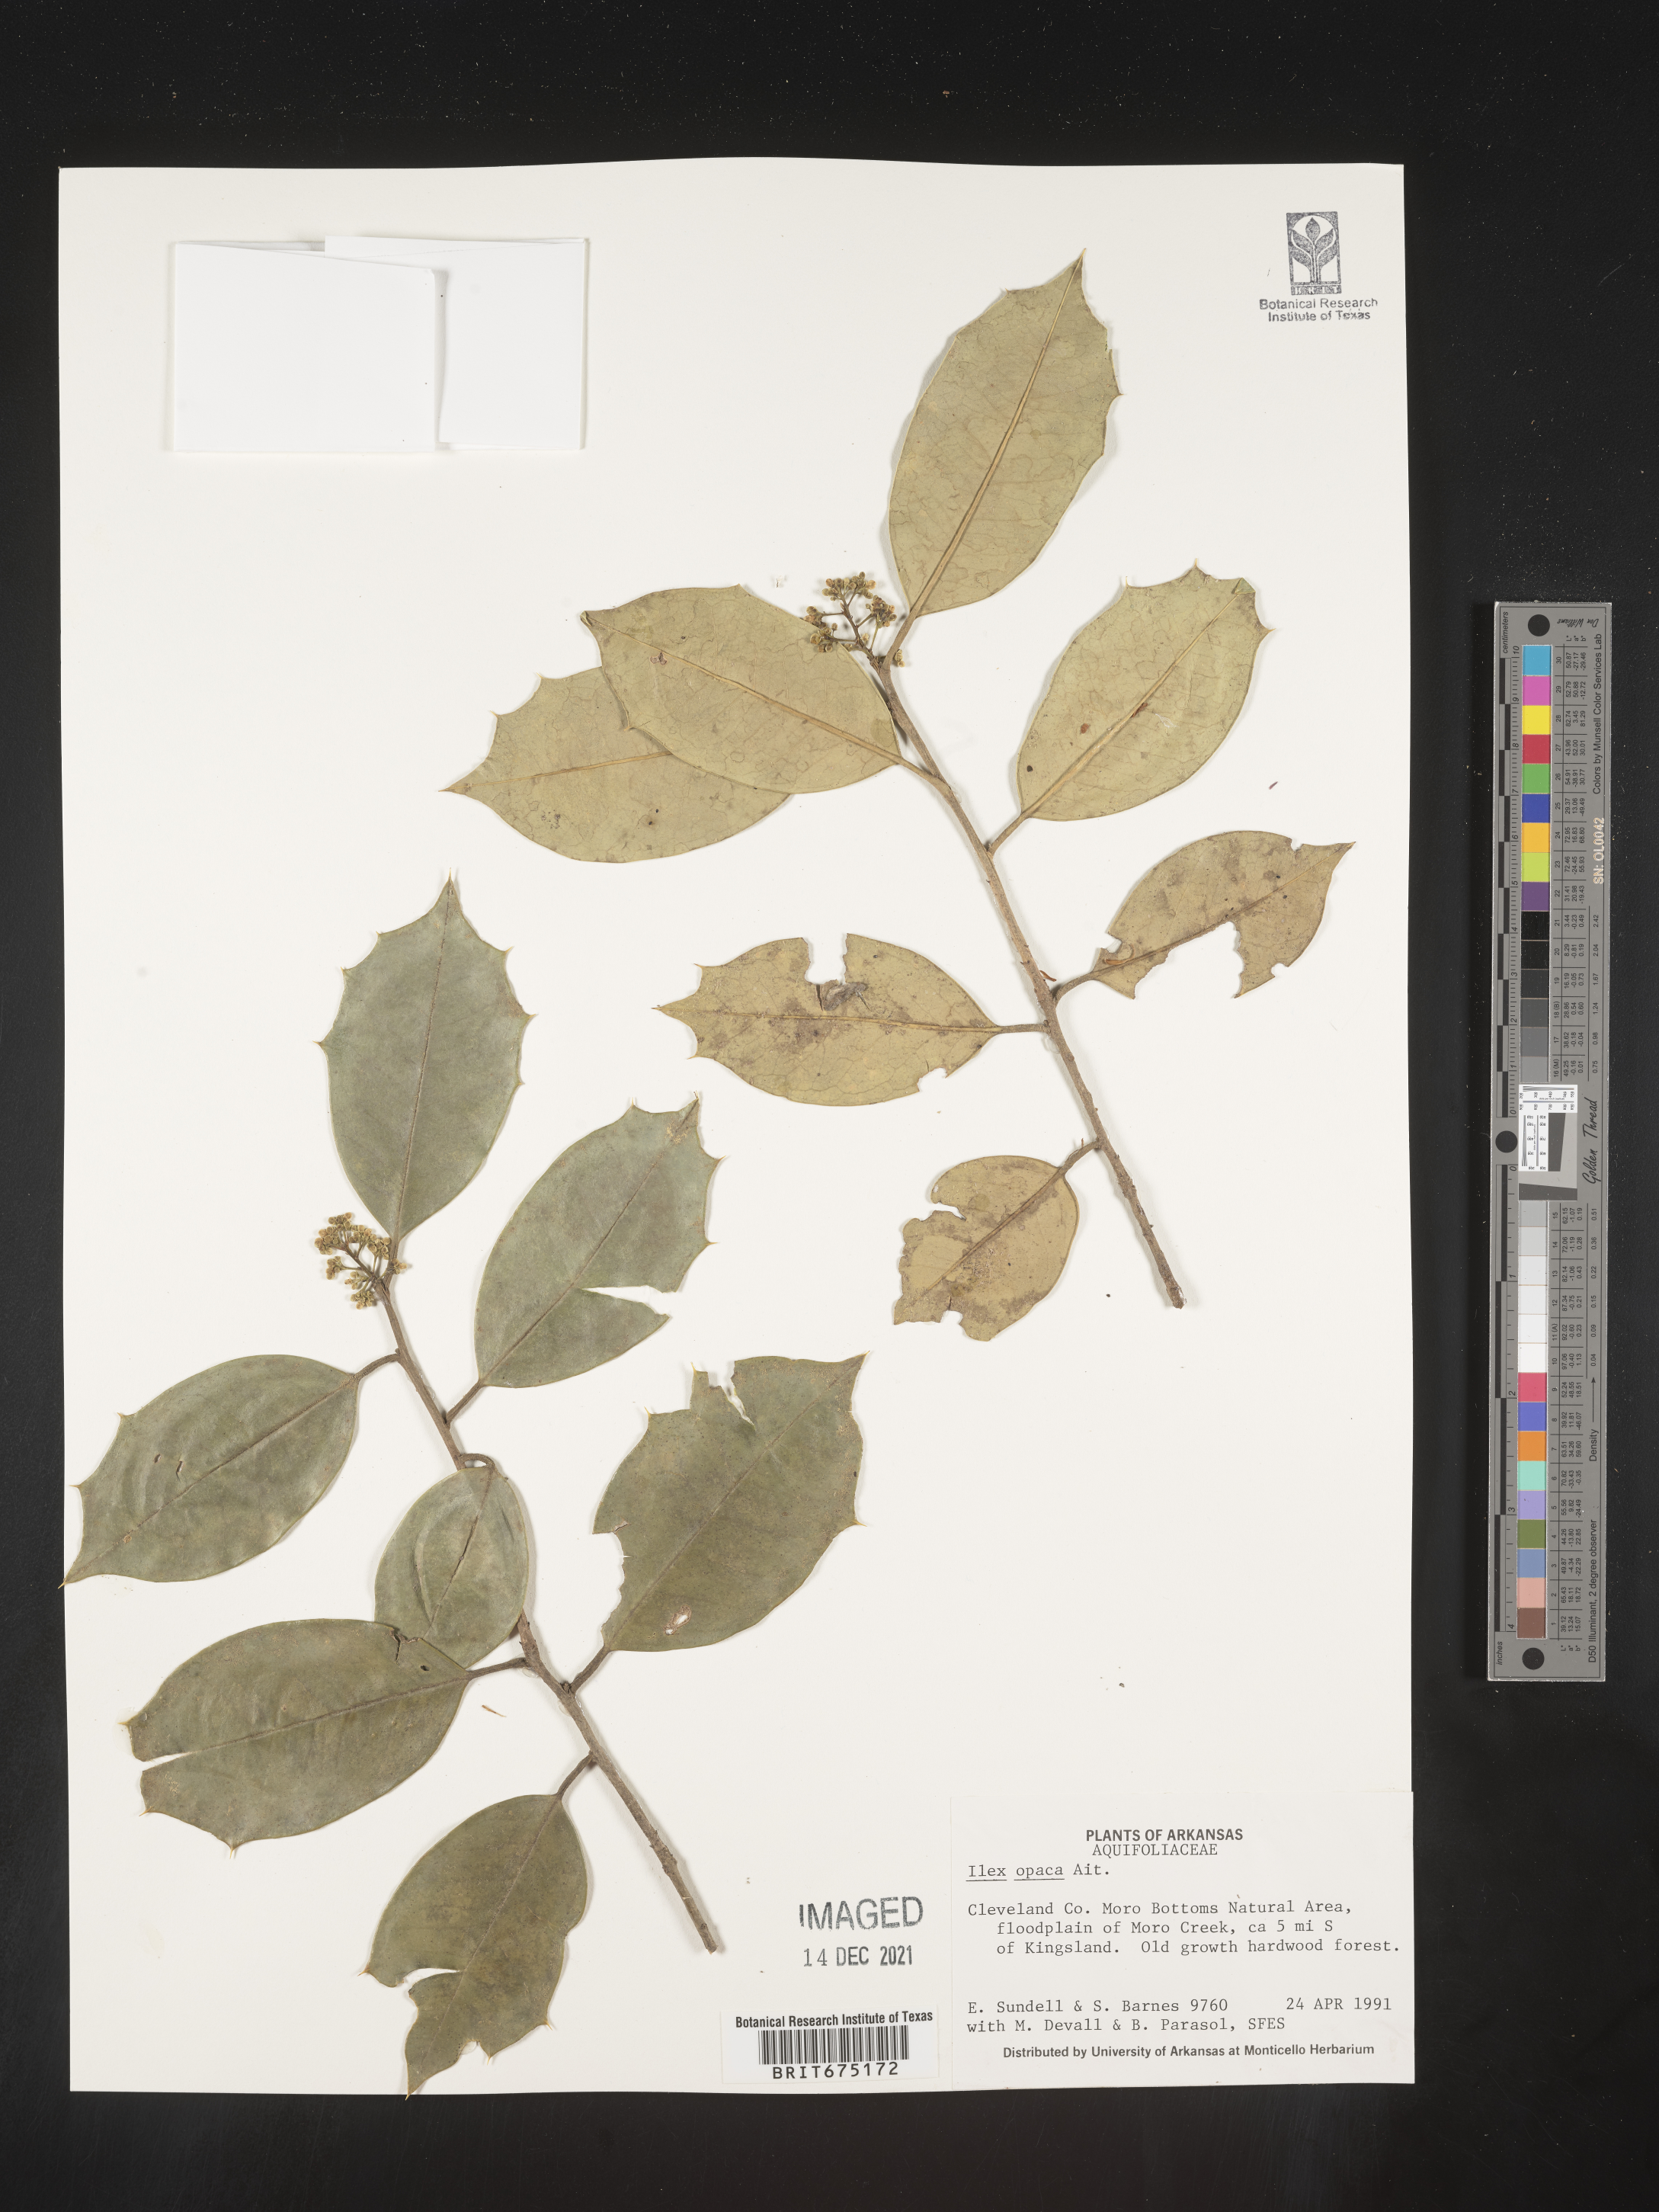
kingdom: Plantae
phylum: Tracheophyta
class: Magnoliopsida
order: Aquifoliales
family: Aquifoliaceae
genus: Ilex
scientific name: Ilex opaca
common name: American holly
